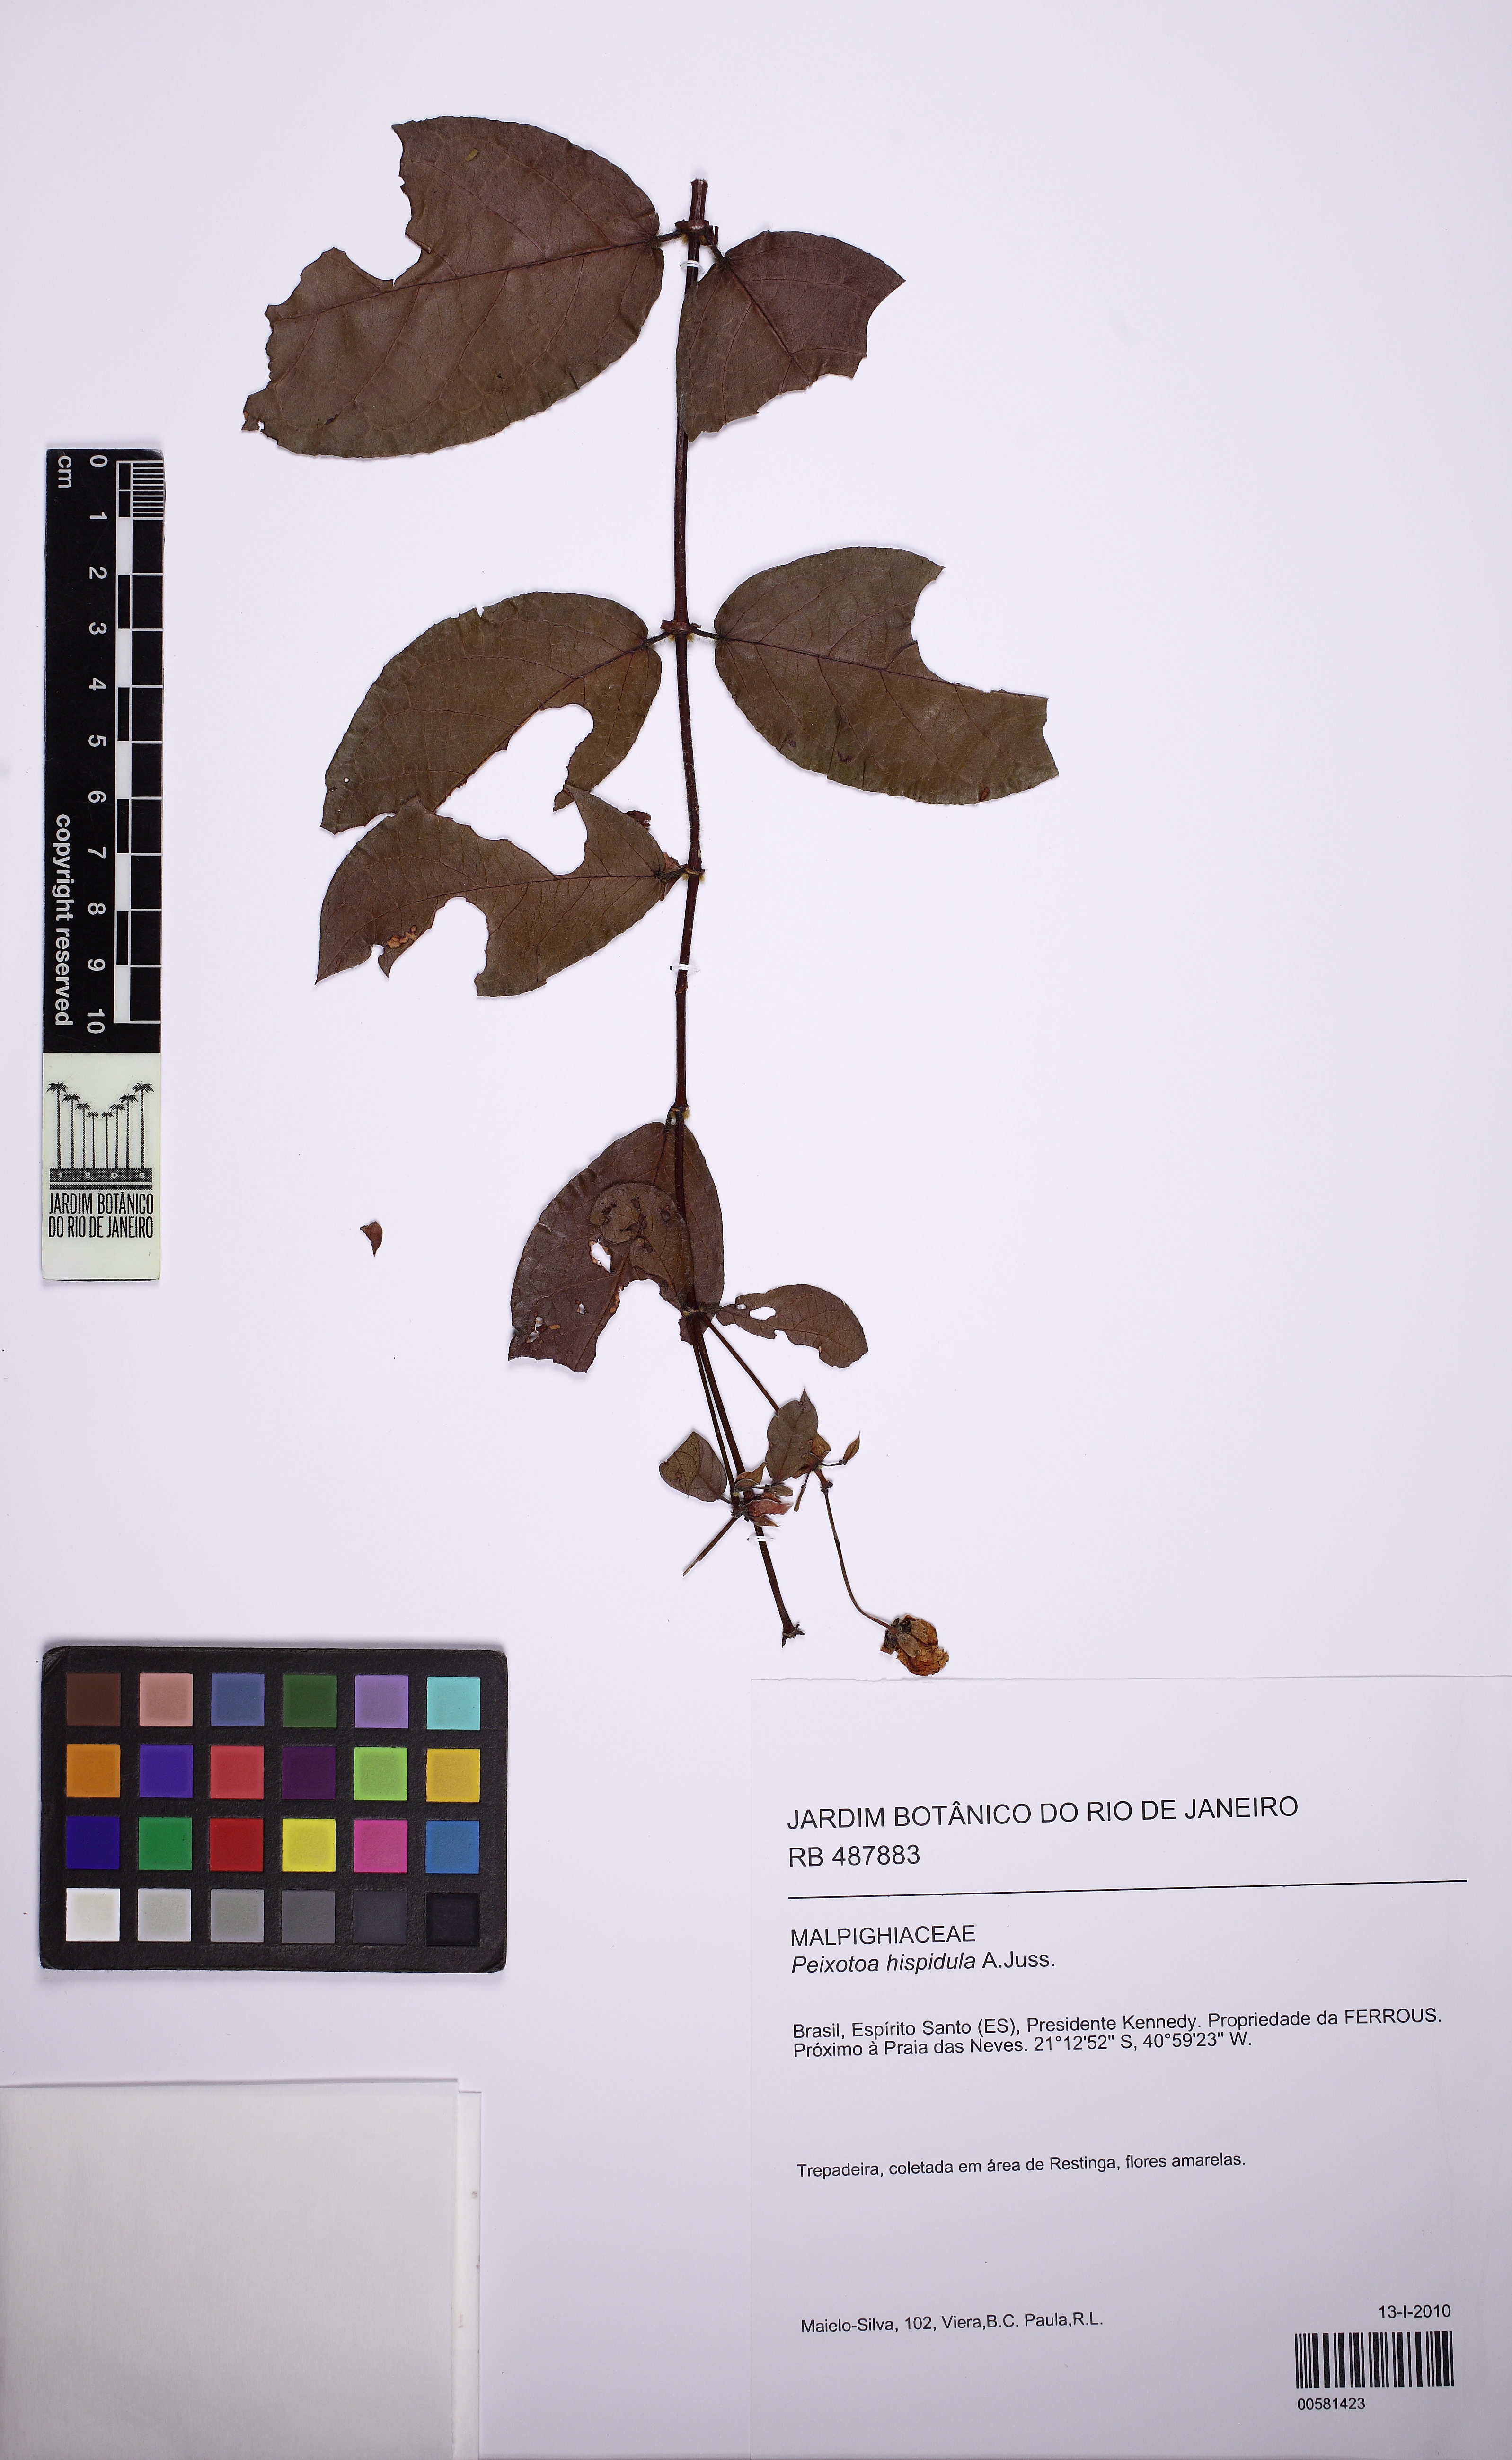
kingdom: Plantae
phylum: Tracheophyta
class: Magnoliopsida
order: Malpighiales
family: Malpighiaceae
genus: Peixotoa
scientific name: Peixotoa hispidula
